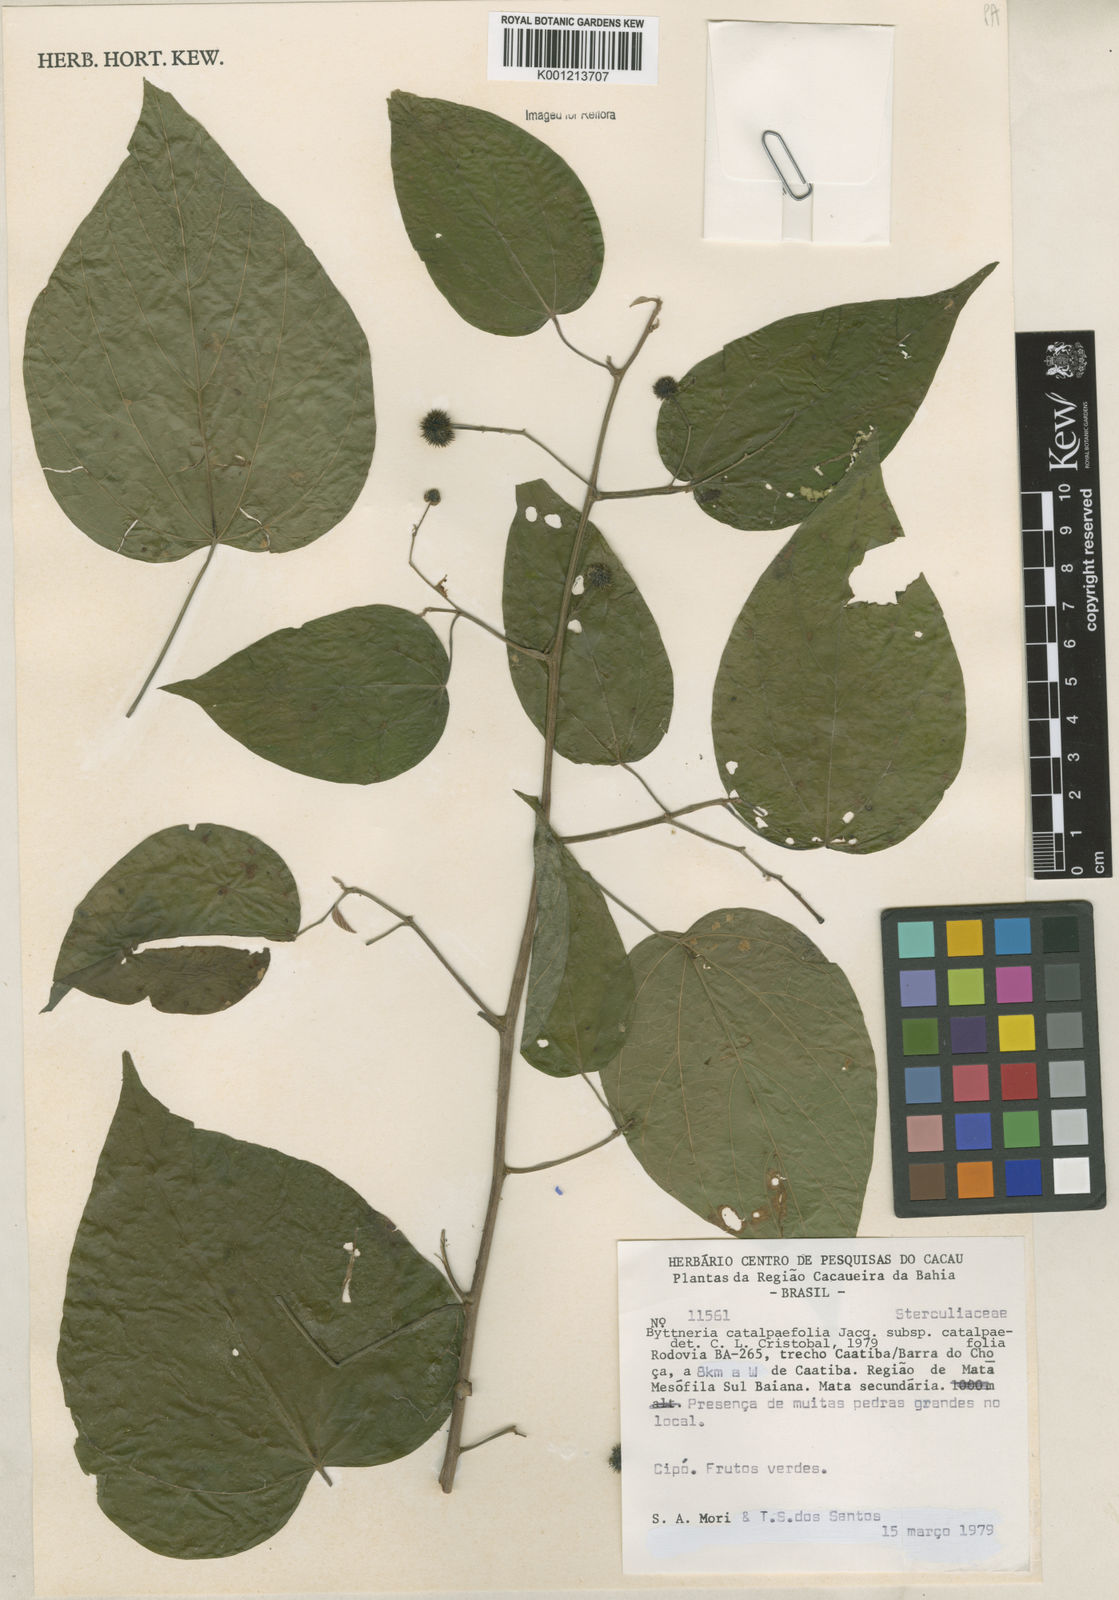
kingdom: Plantae
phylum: Tracheophyta
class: Magnoliopsida
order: Malvales
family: Malvaceae
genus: Byttneria
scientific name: Byttneria catalpifolia
